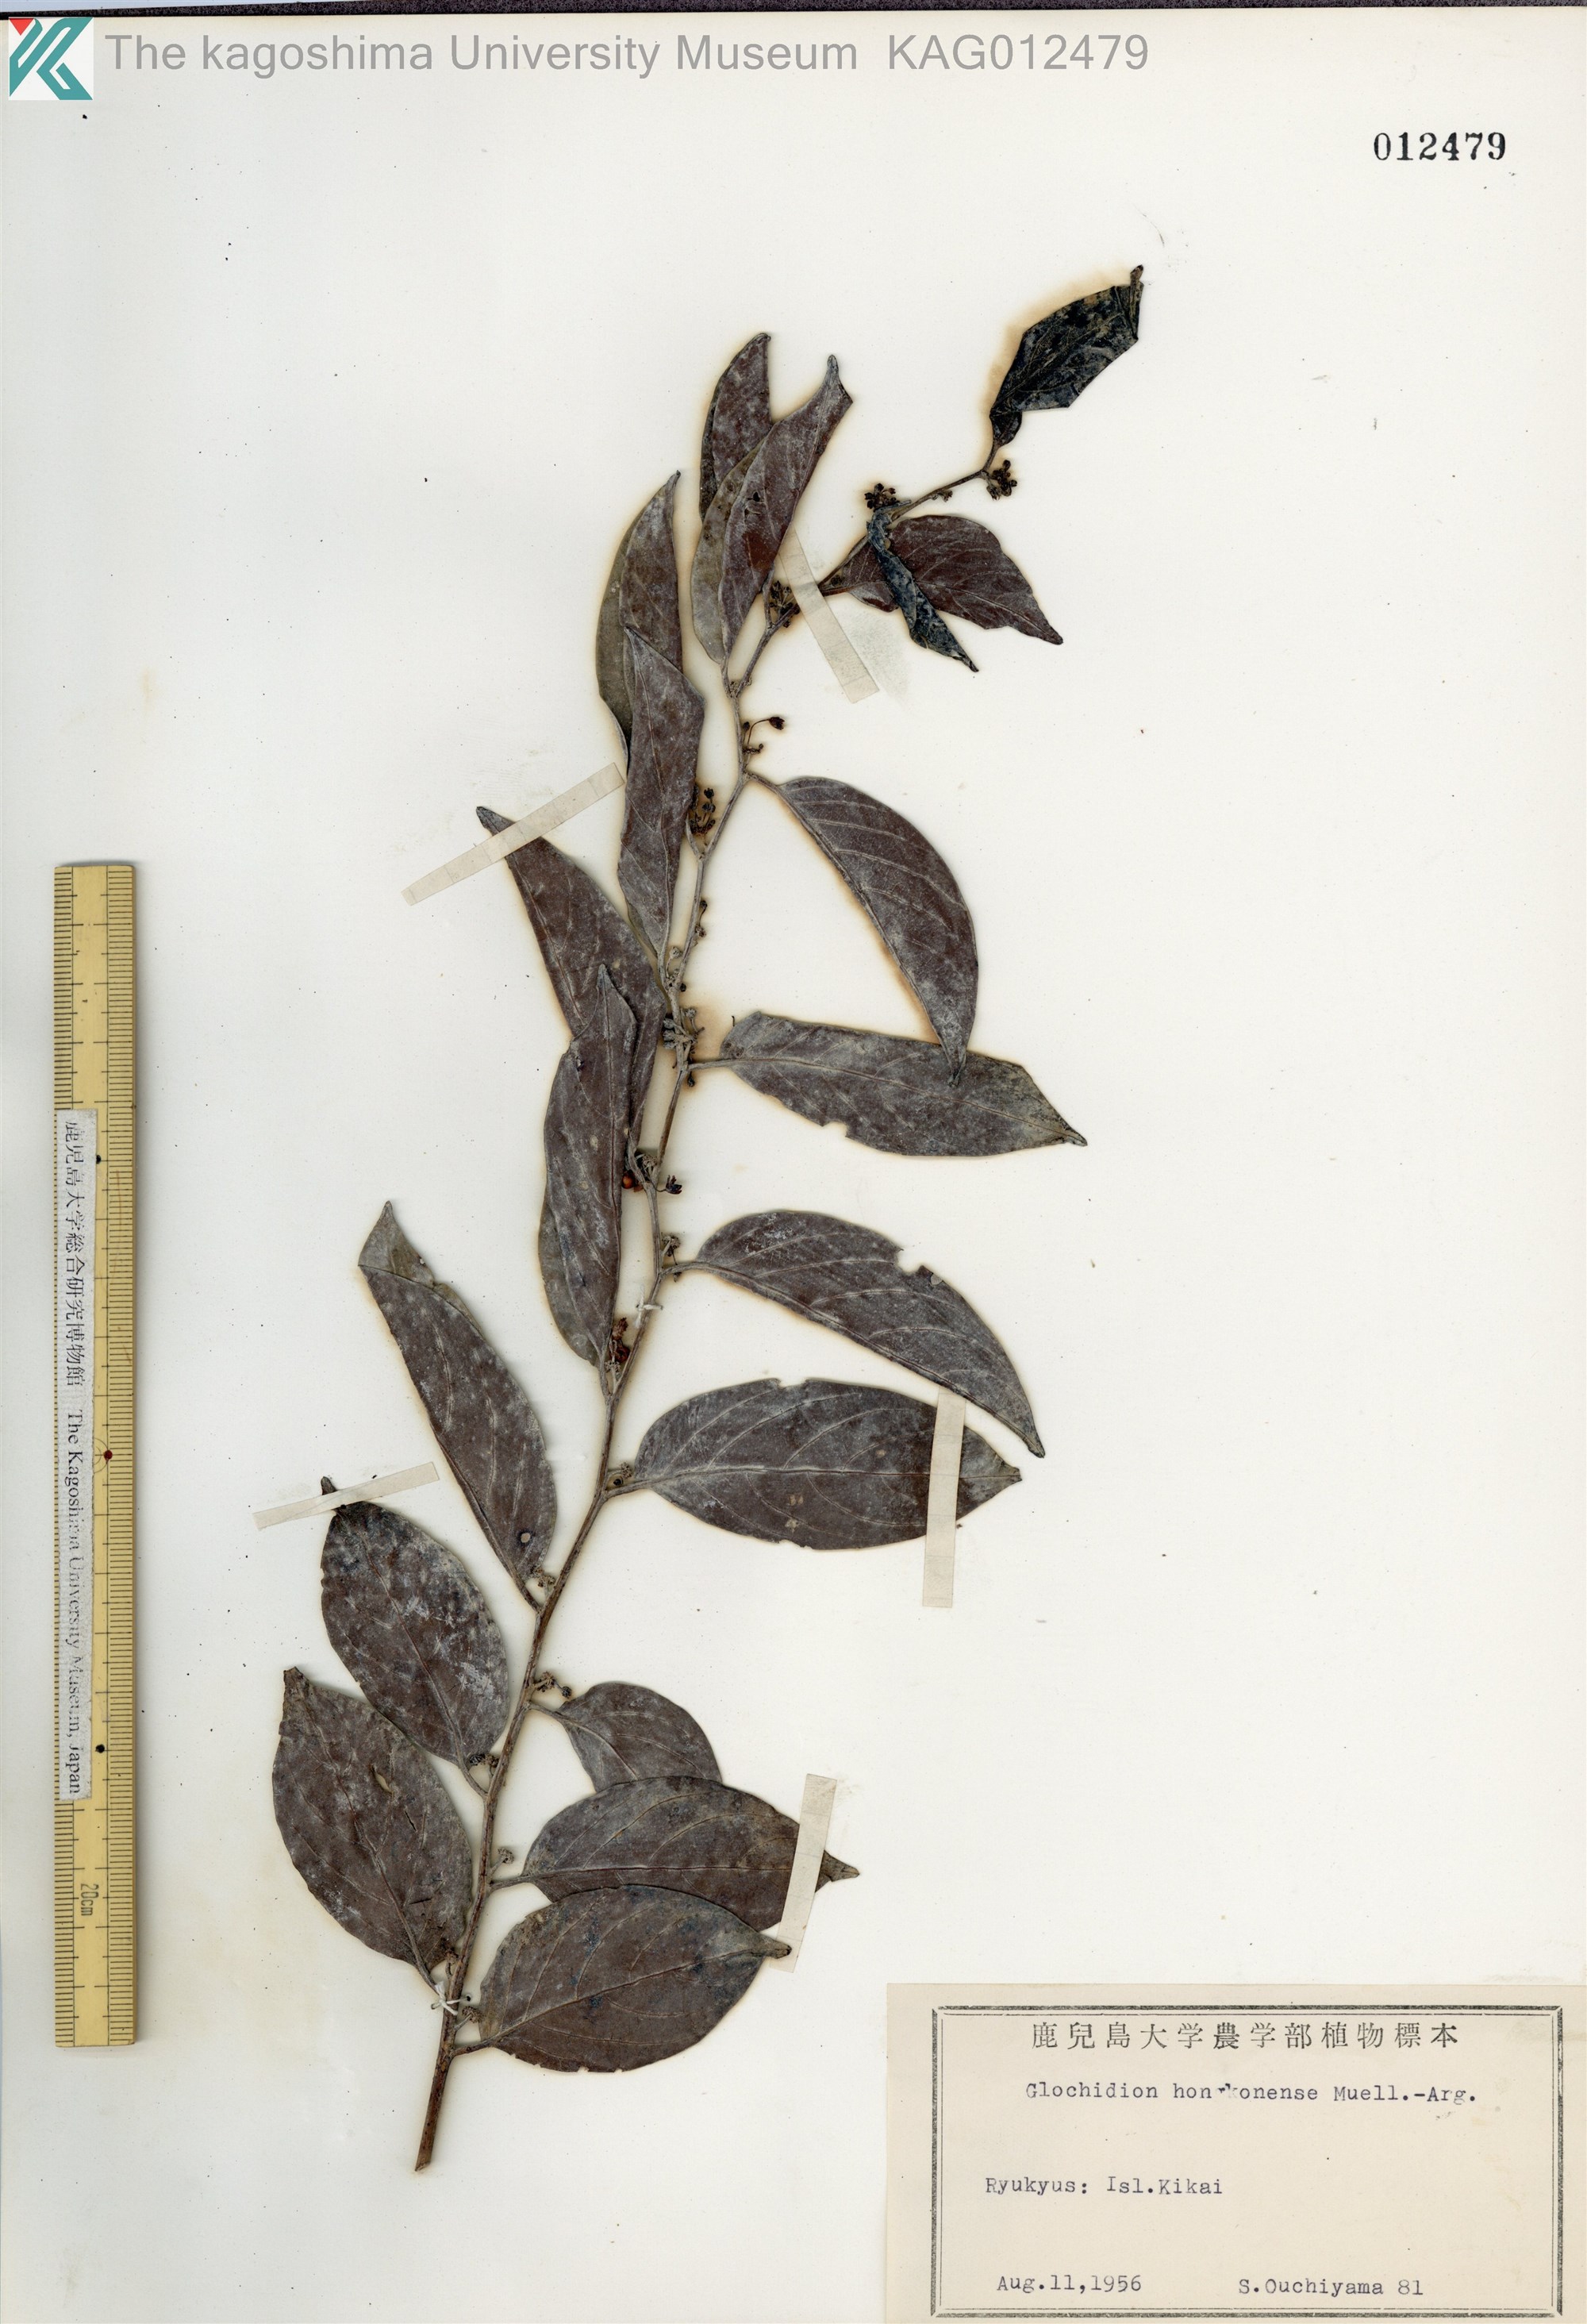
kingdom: Plantae
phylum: Tracheophyta
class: Magnoliopsida
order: Malpighiales
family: Phyllanthaceae
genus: Glochidion
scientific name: Glochidion zeylanicum
